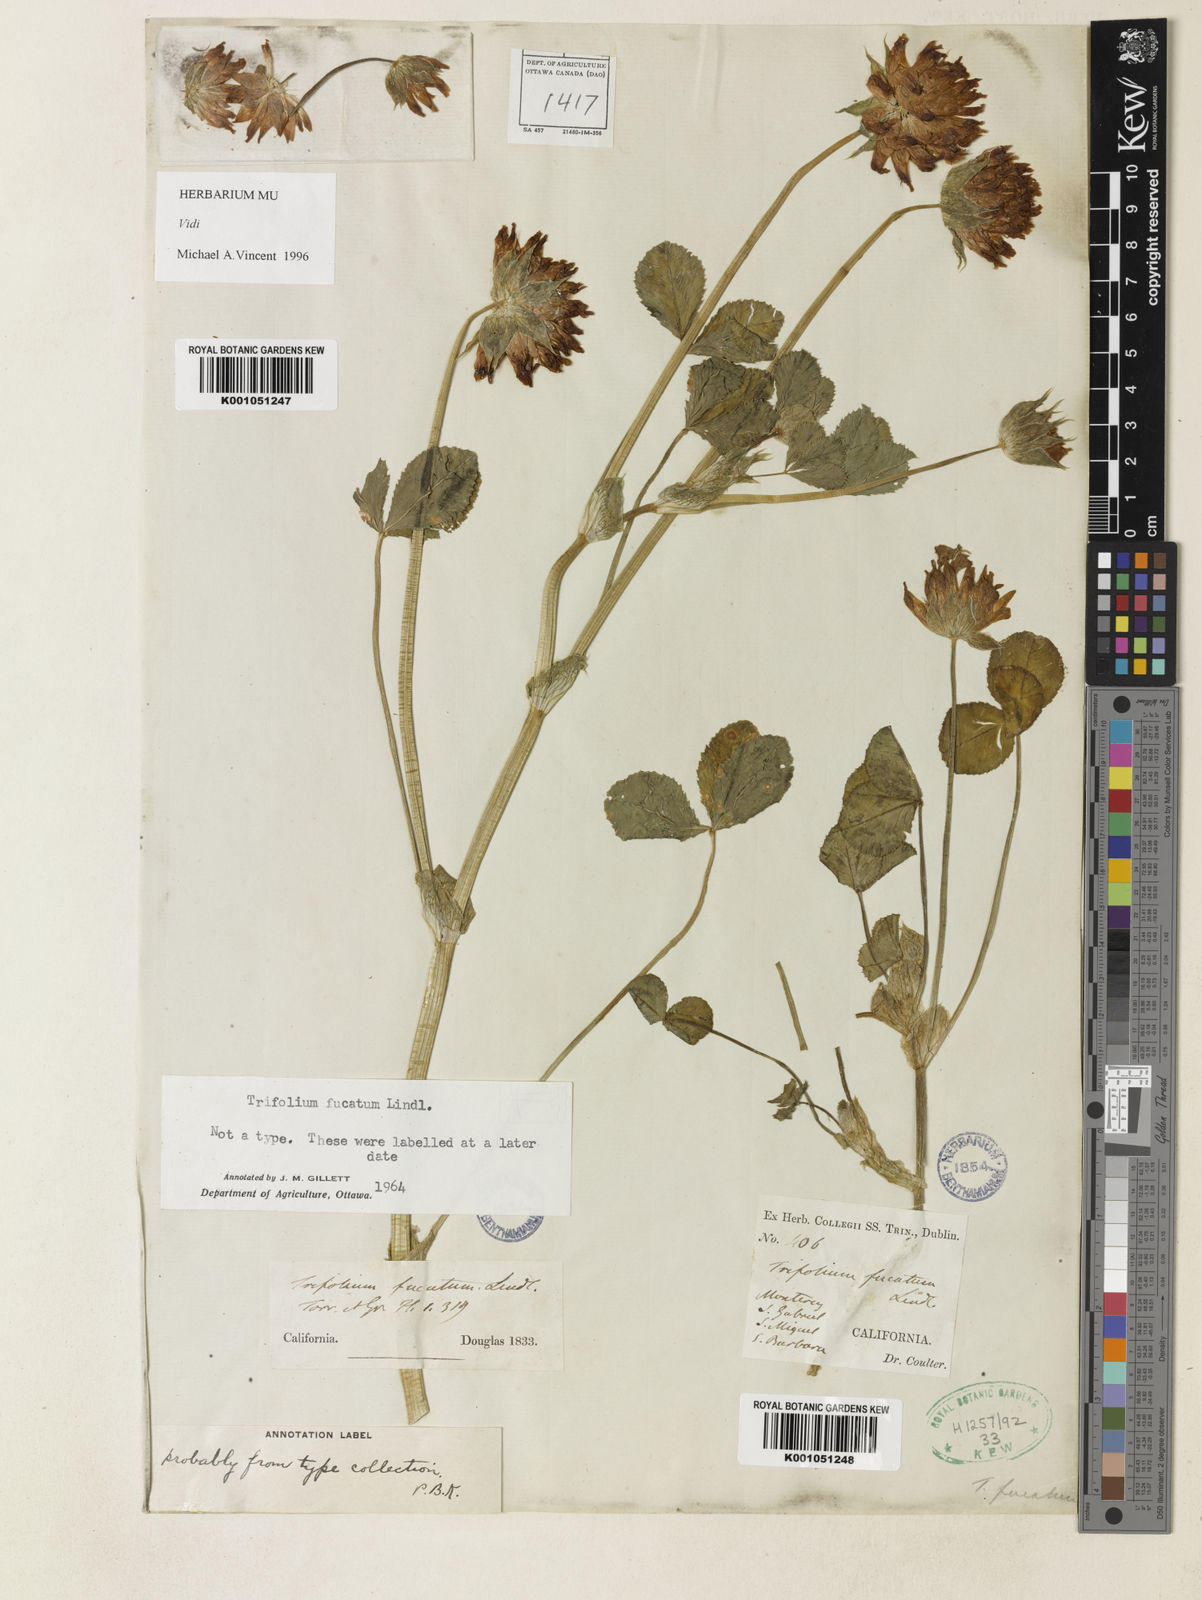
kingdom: Plantae
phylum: Tracheophyta
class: Magnoliopsida
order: Fabales
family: Fabaceae
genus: Trifolium
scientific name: Trifolium fucatum
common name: Puff clover
